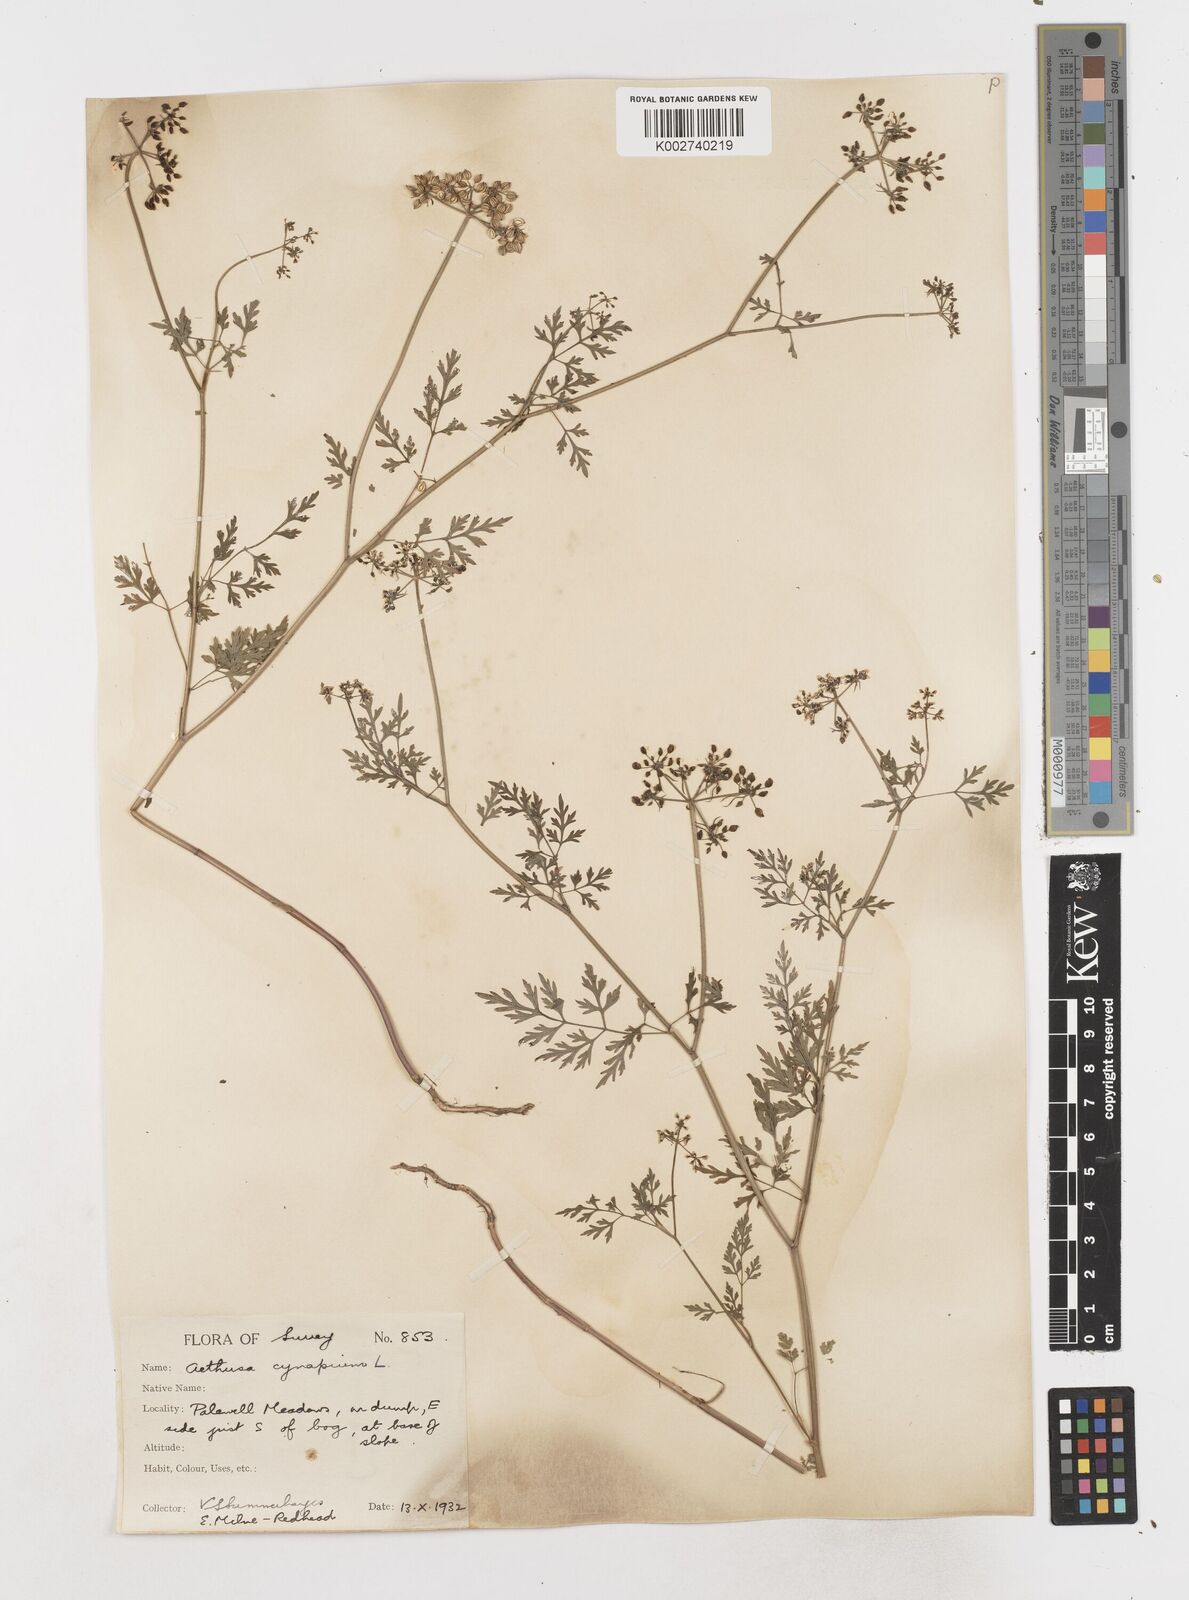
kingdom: Plantae
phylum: Tracheophyta
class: Magnoliopsida
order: Apiales
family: Apiaceae
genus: Aethusa
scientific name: Aethusa cynapium
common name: Fool's parsley
